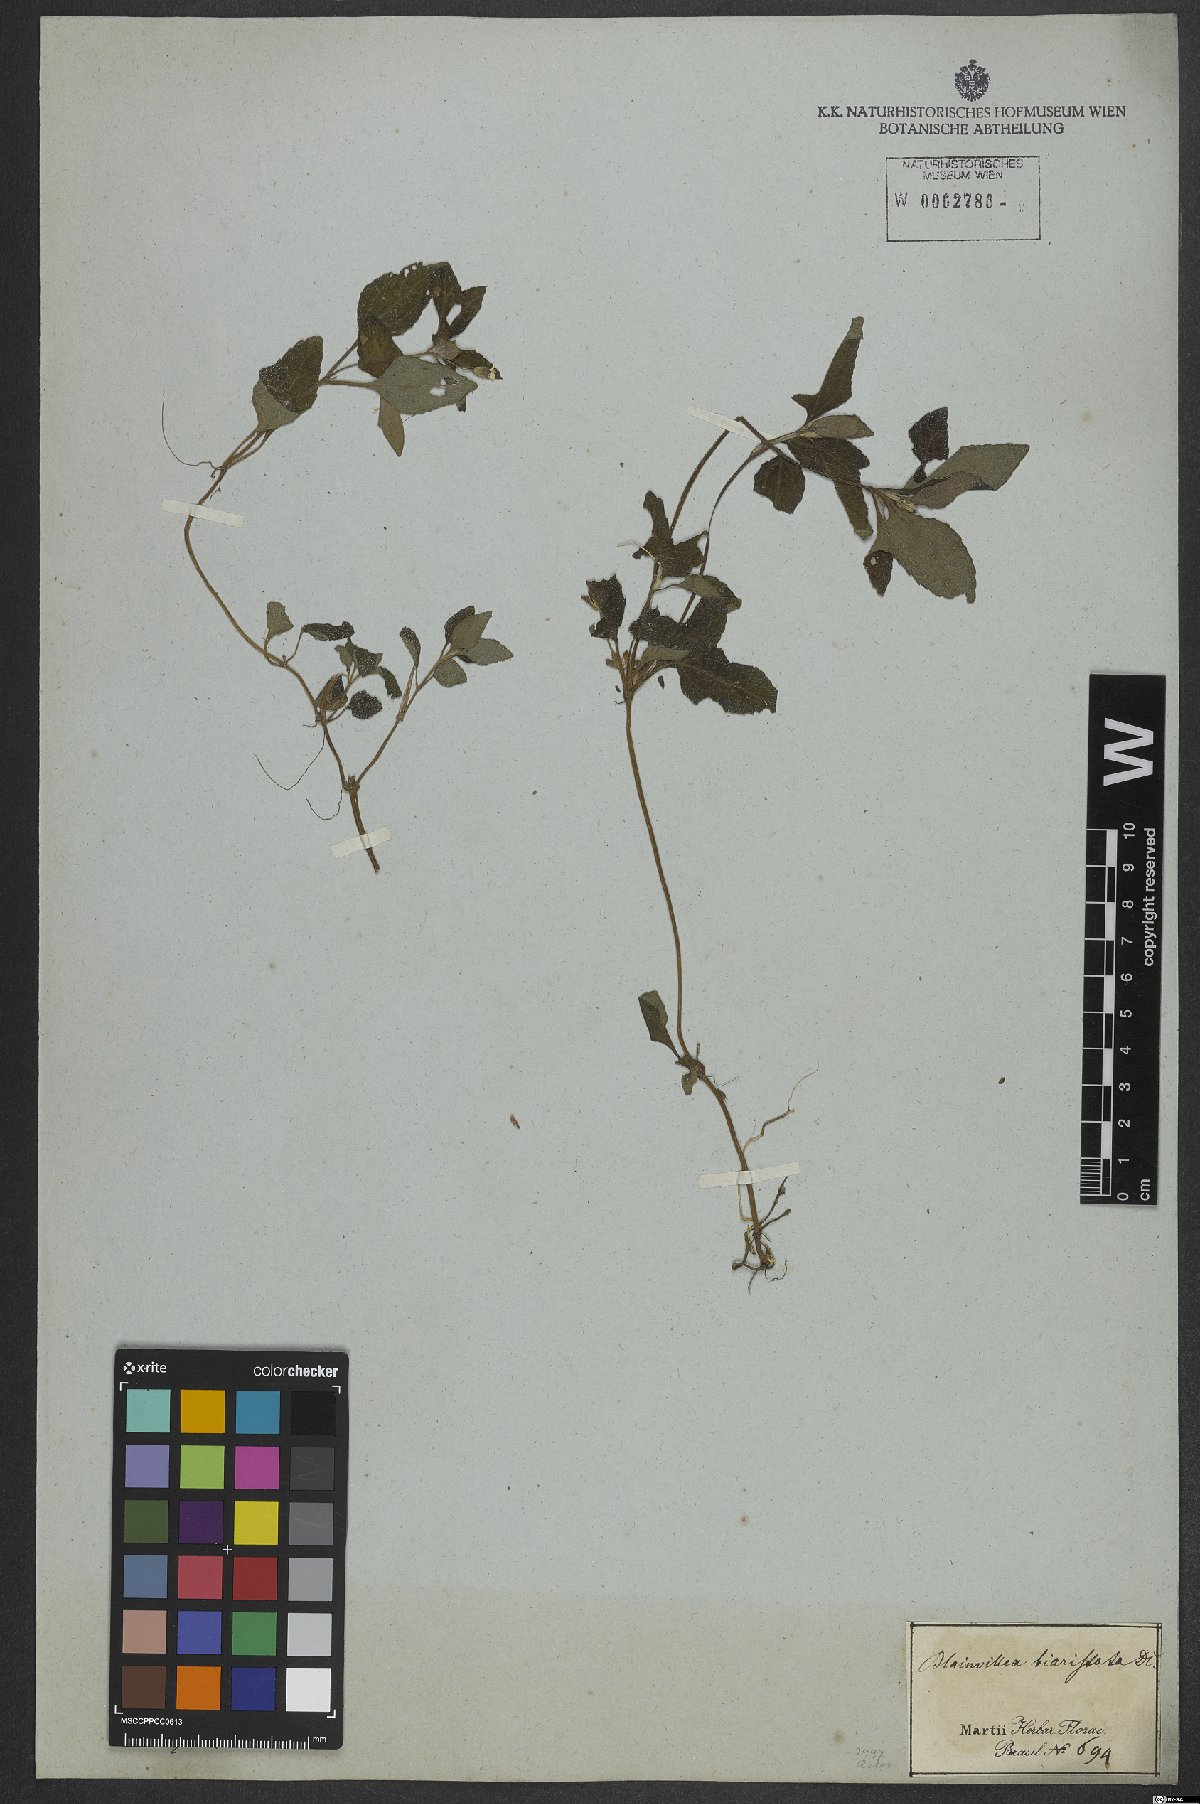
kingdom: Plantae
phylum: Tracheophyta
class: Magnoliopsida
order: Asterales
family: Asteraceae
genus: Calyptocarpus
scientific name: Calyptocarpus brasiliensis
